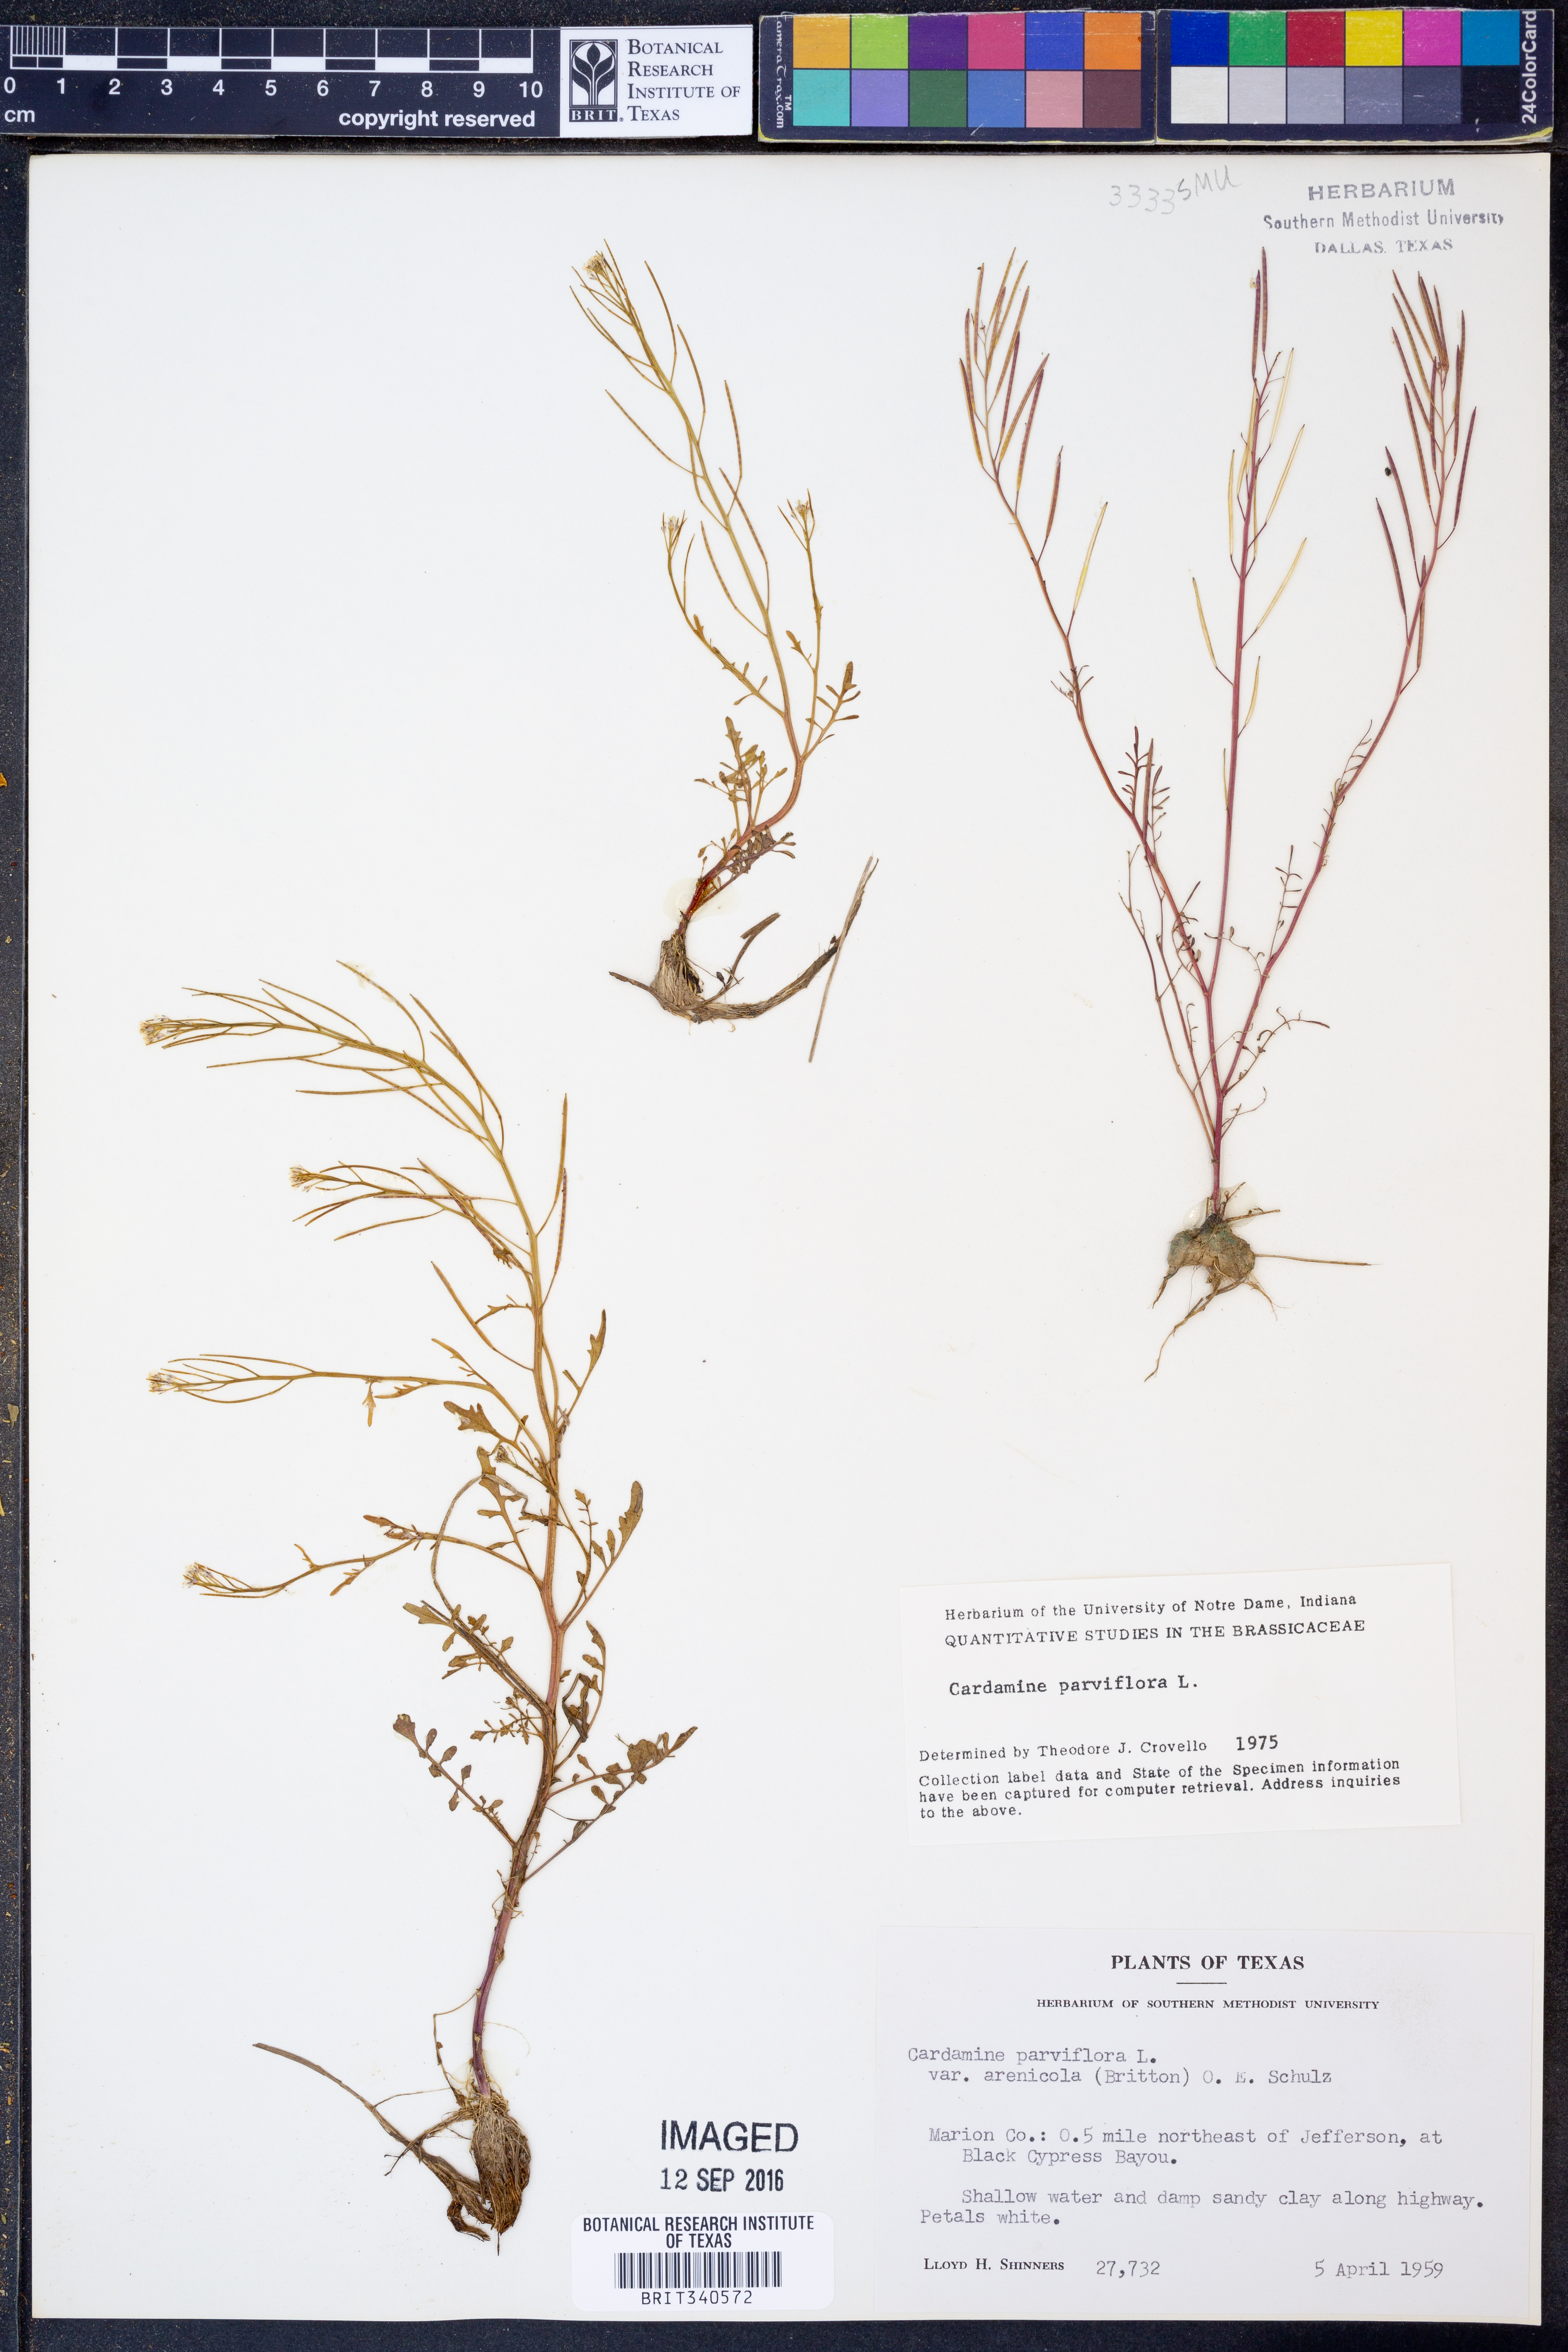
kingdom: Plantae
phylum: Tracheophyta
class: Magnoliopsida
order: Brassicales
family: Brassicaceae
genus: Cardamine
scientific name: Cardamine parviflora
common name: Sand bittercress
